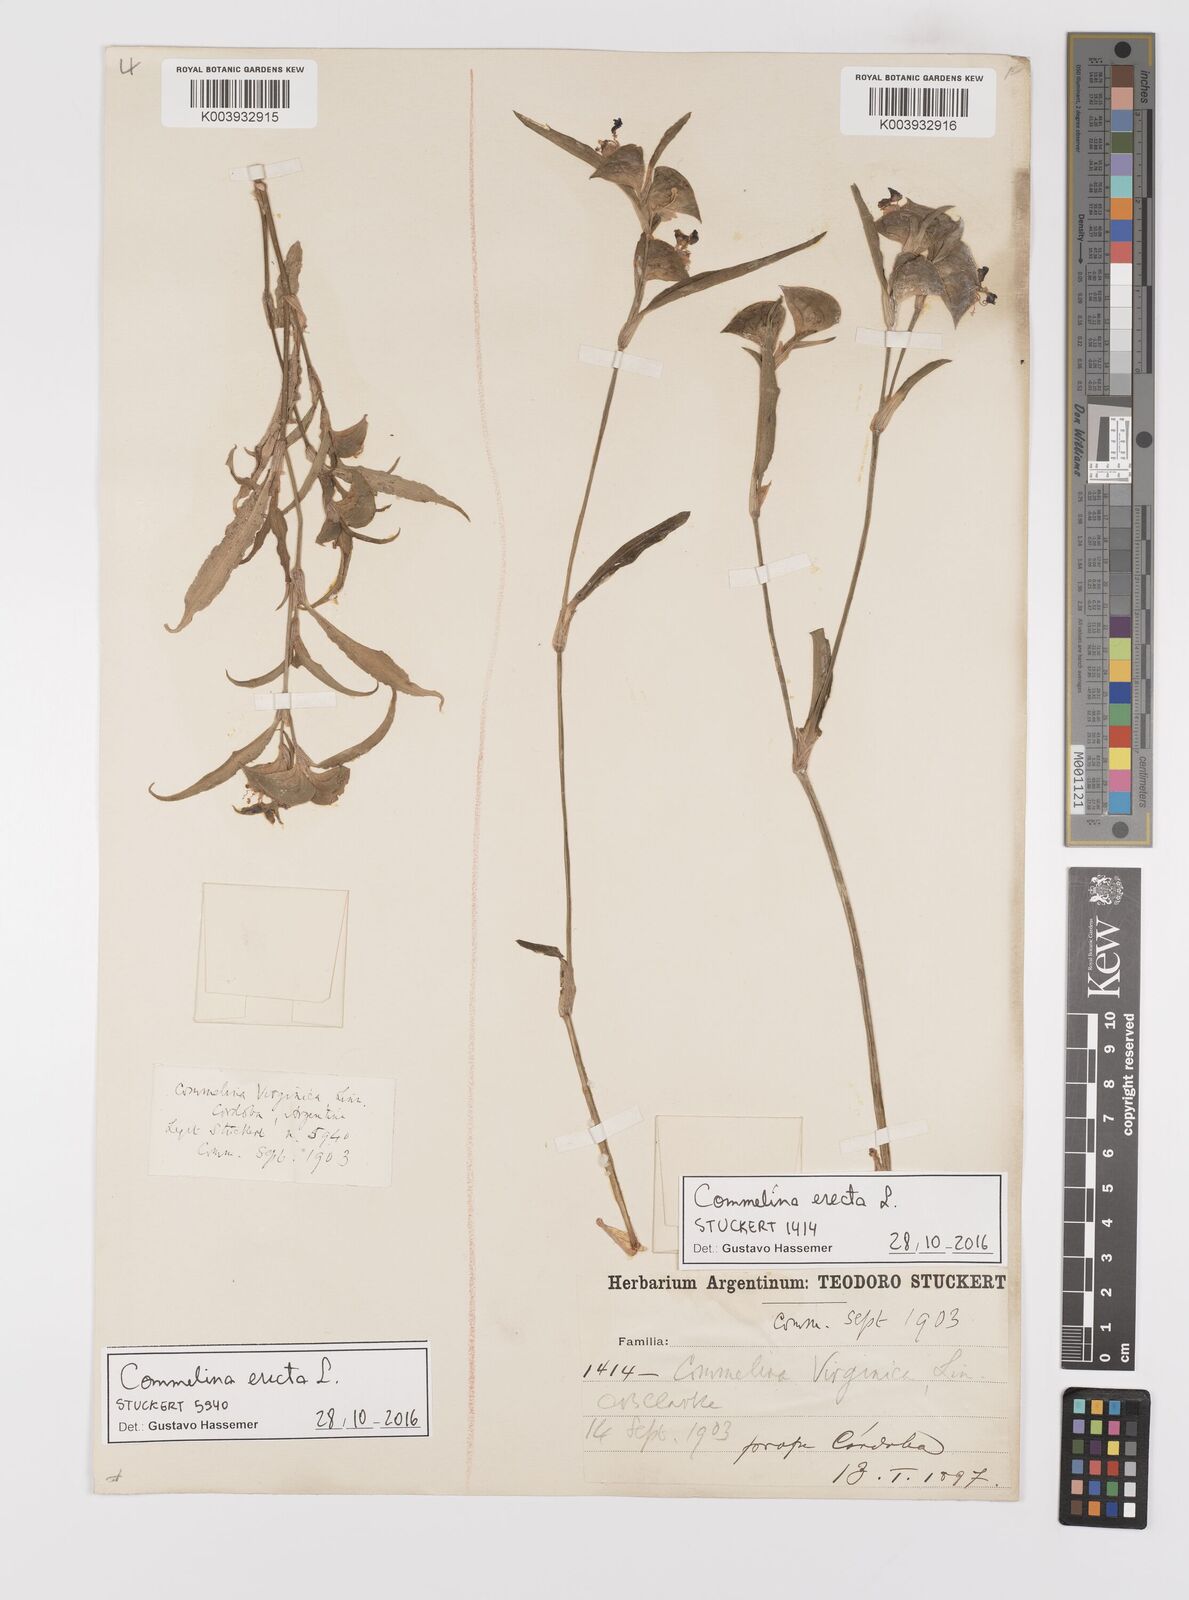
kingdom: Plantae
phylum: Tracheophyta
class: Liliopsida
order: Commelinales
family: Commelinaceae
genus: Commelina
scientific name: Commelina erecta
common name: Blousel blommetjie
